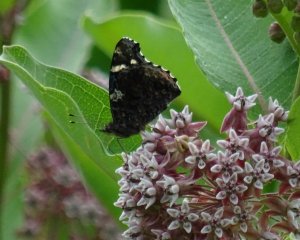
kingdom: Animalia
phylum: Arthropoda
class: Insecta
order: Lepidoptera
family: Nymphalidae
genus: Vanessa
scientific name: Vanessa atalanta
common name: Red Admiral
